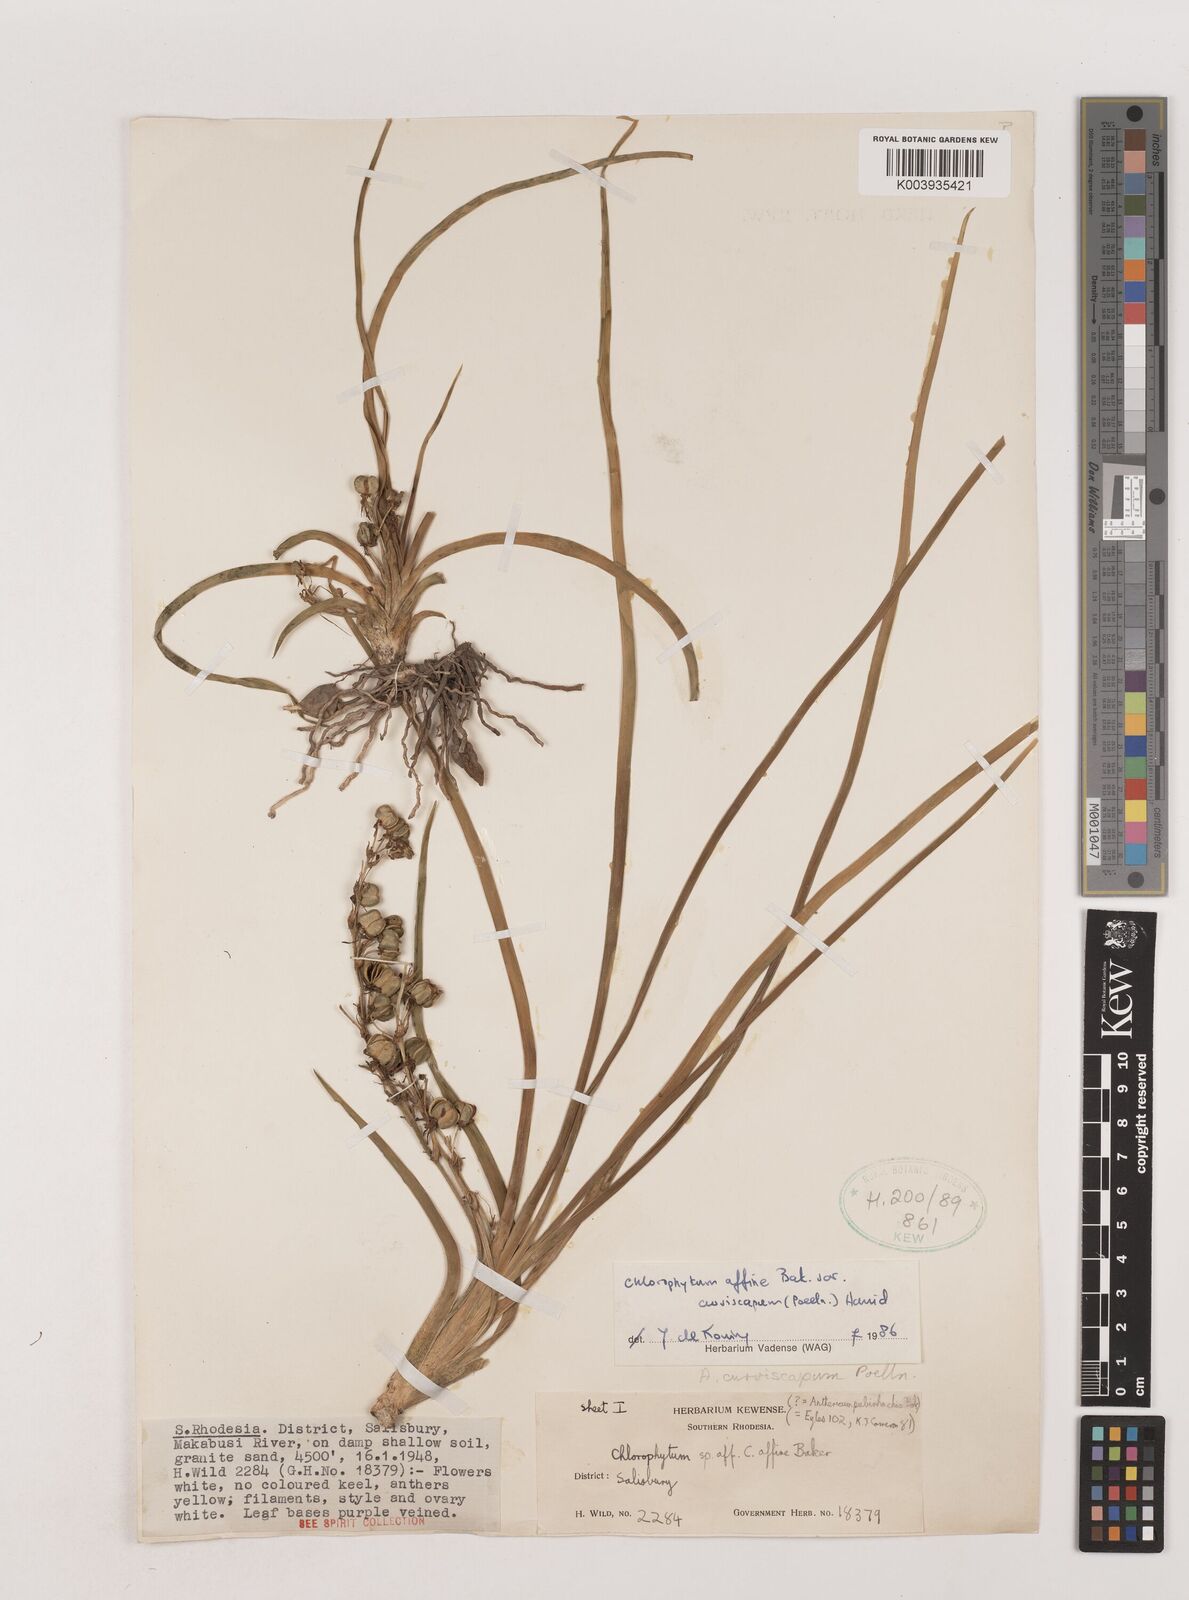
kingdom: Plantae
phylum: Tracheophyta
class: Liliopsida
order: Asparagales
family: Asparagaceae
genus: Chlorophytum
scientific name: Chlorophytum tordense
